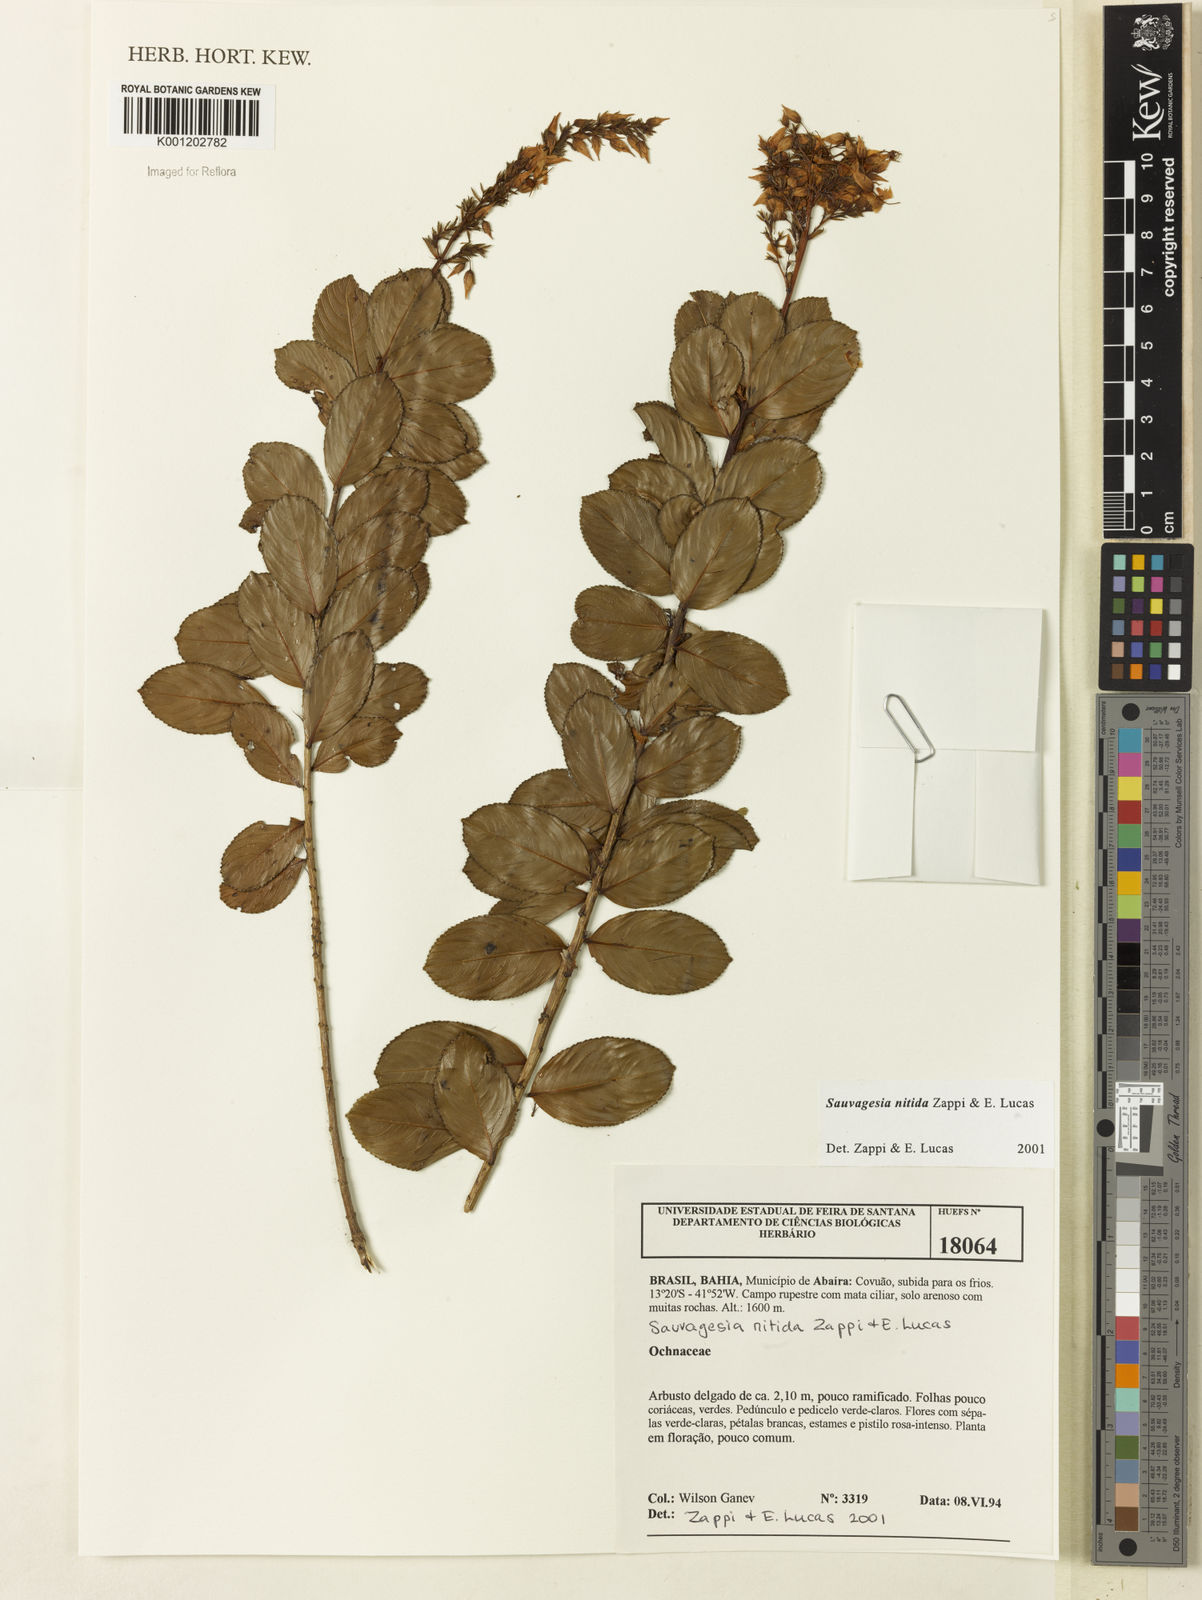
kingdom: Plantae
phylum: Tracheophyta
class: Magnoliopsida
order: Malpighiales
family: Ochnaceae
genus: Sauvagesia
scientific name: Sauvagesia nitida
